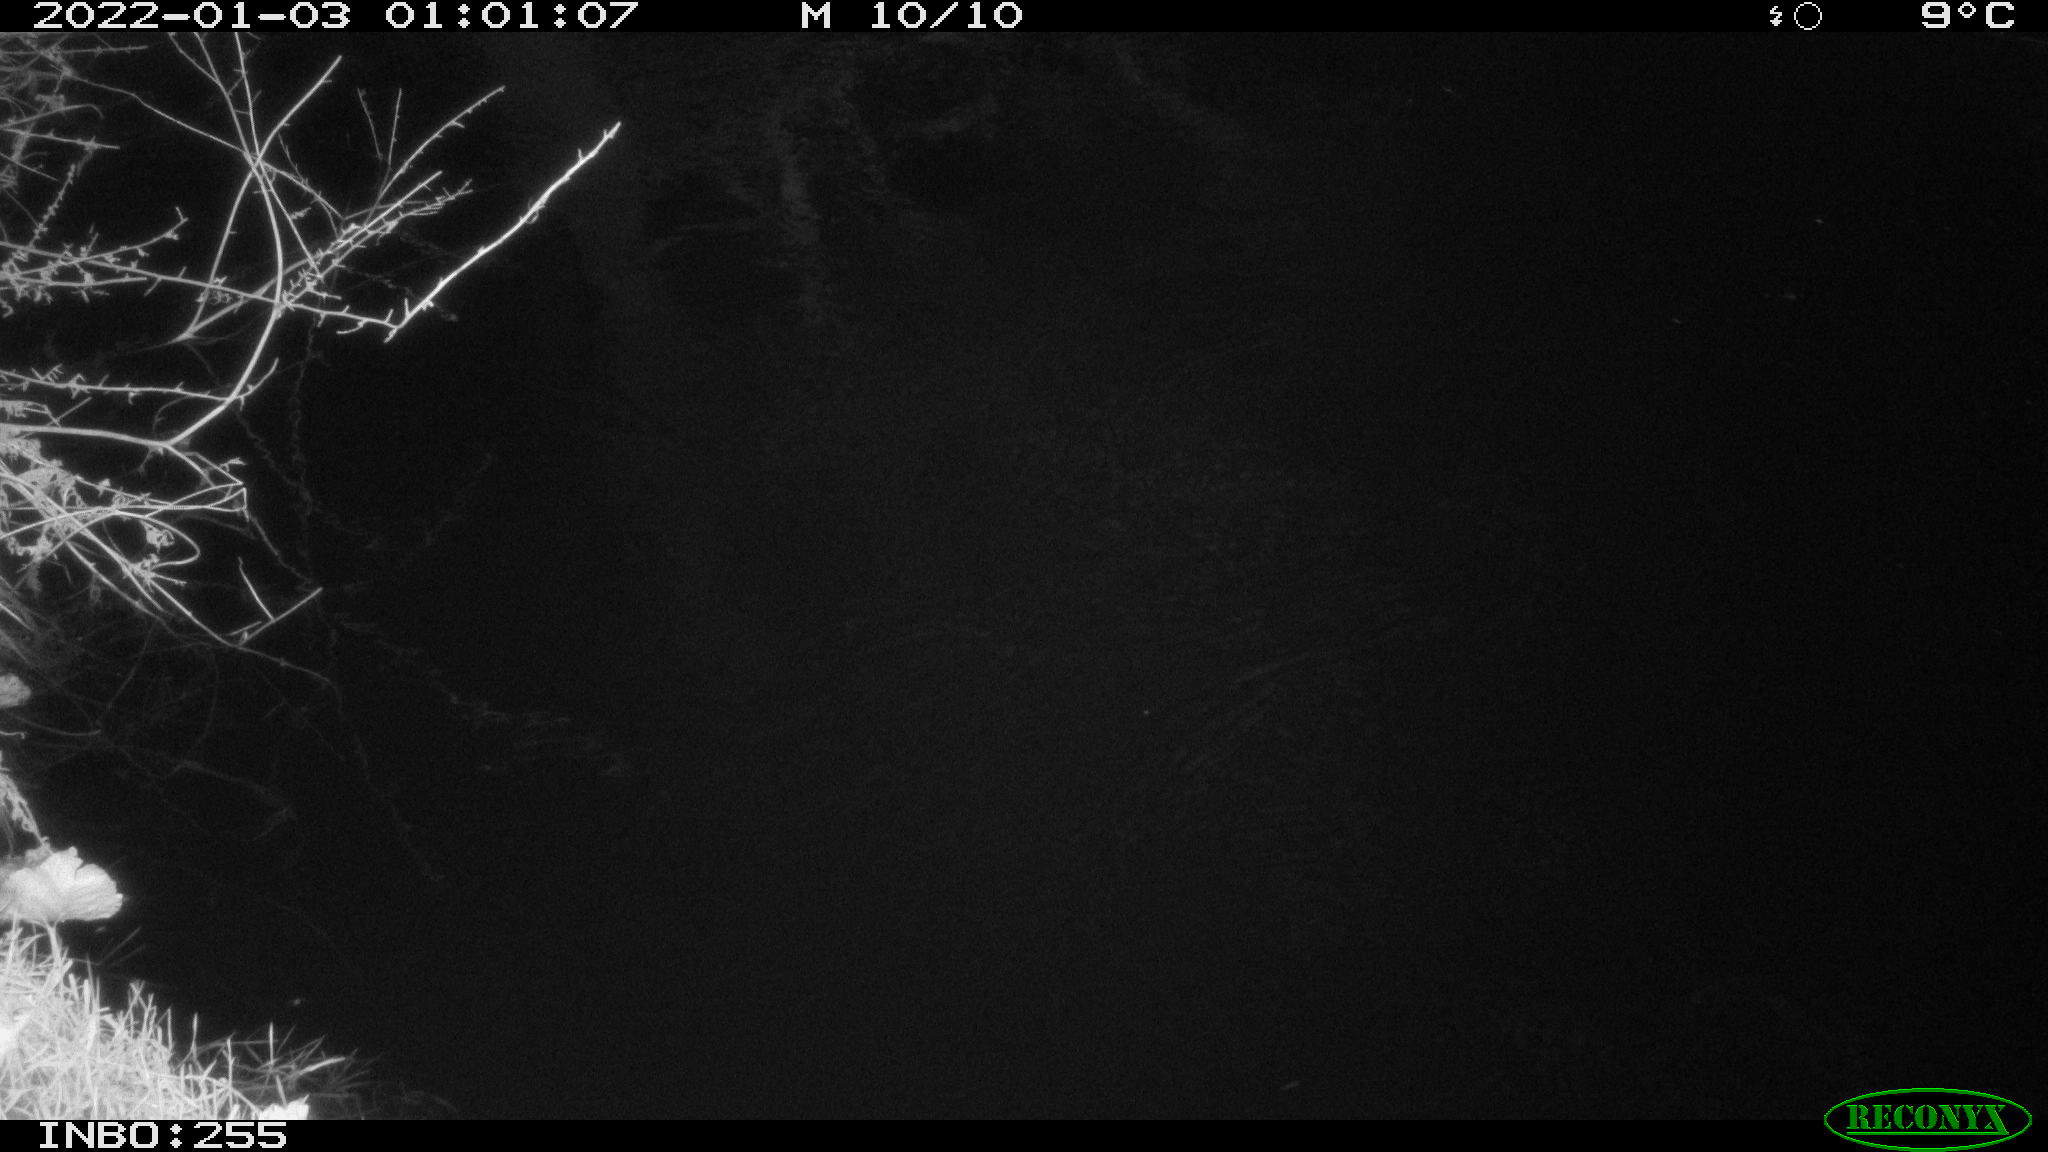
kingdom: Animalia
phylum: Chordata
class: Mammalia
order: Rodentia
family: Muridae
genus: Rattus
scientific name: Rattus norvegicus
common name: Brown rat
